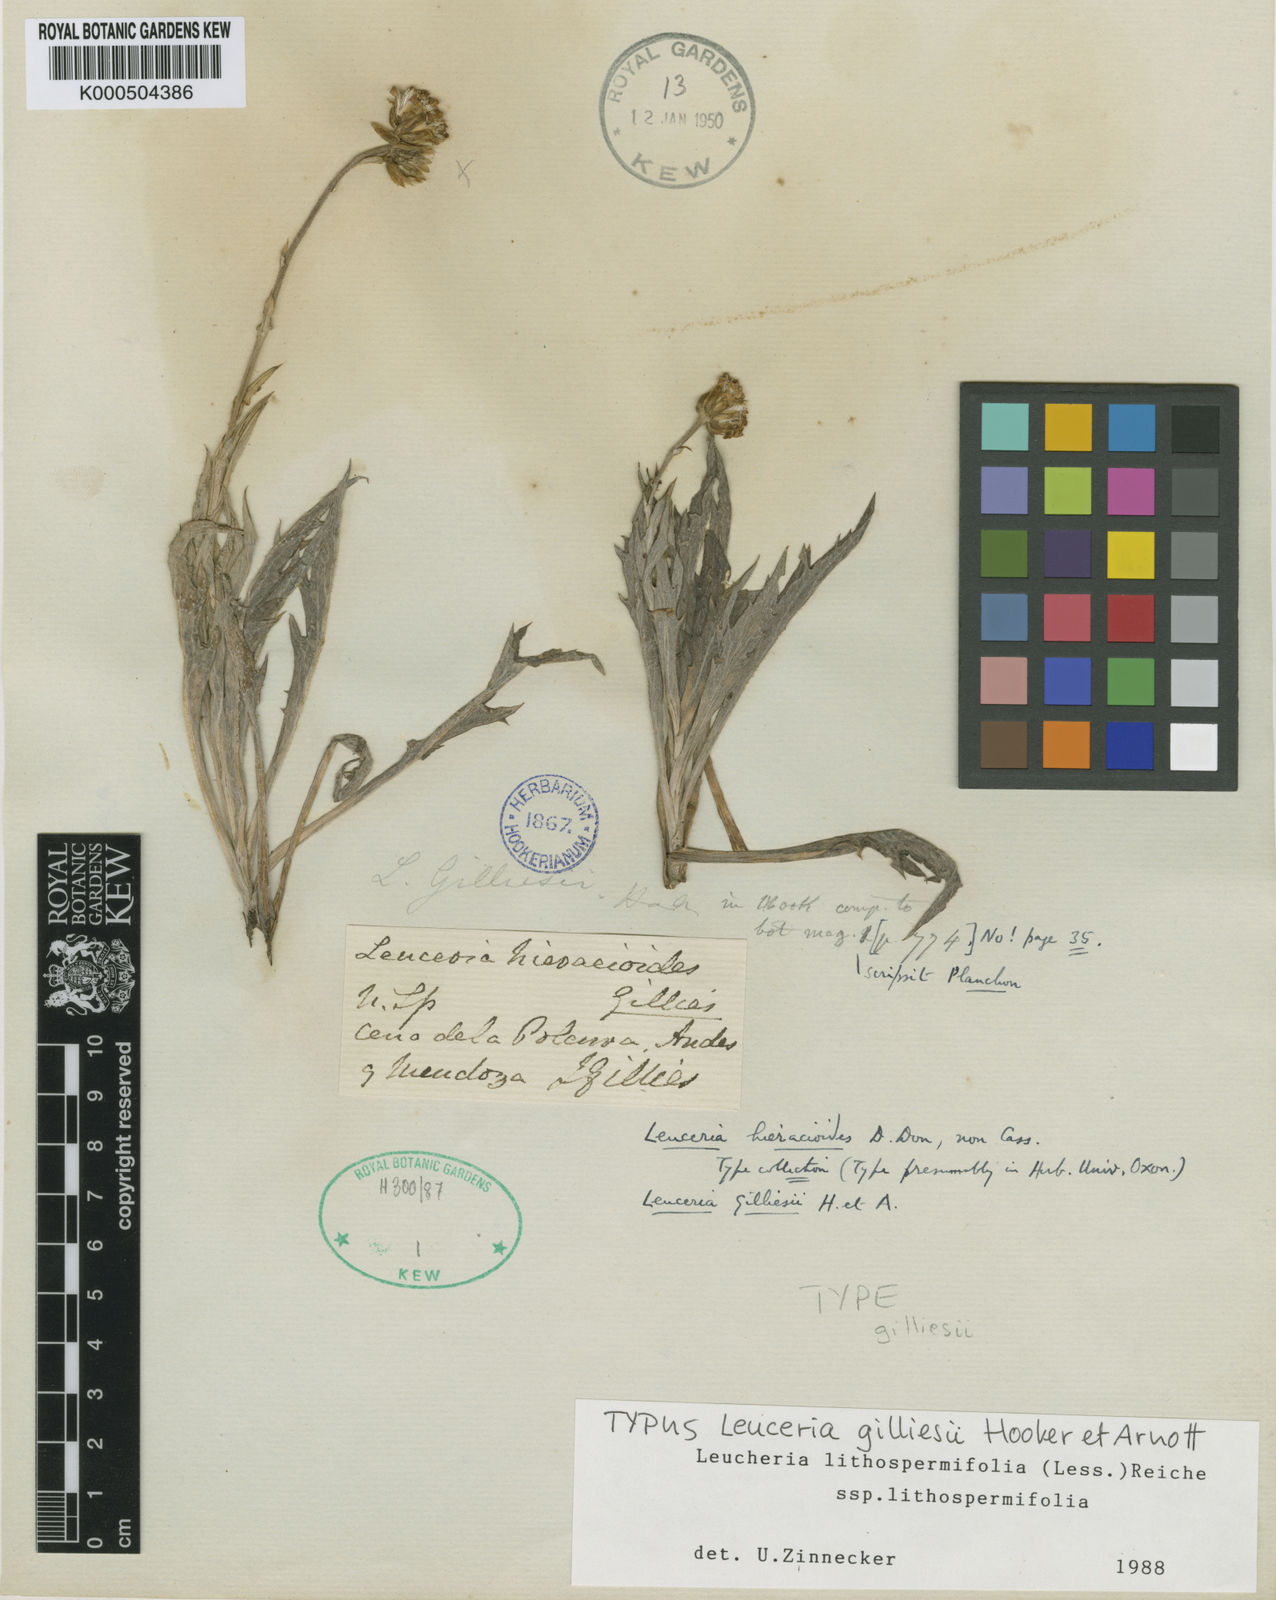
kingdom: Plantae
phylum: Tracheophyta
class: Magnoliopsida
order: Asterales
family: Asteraceae
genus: Leucheria
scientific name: Leucheria lithospermifolia
